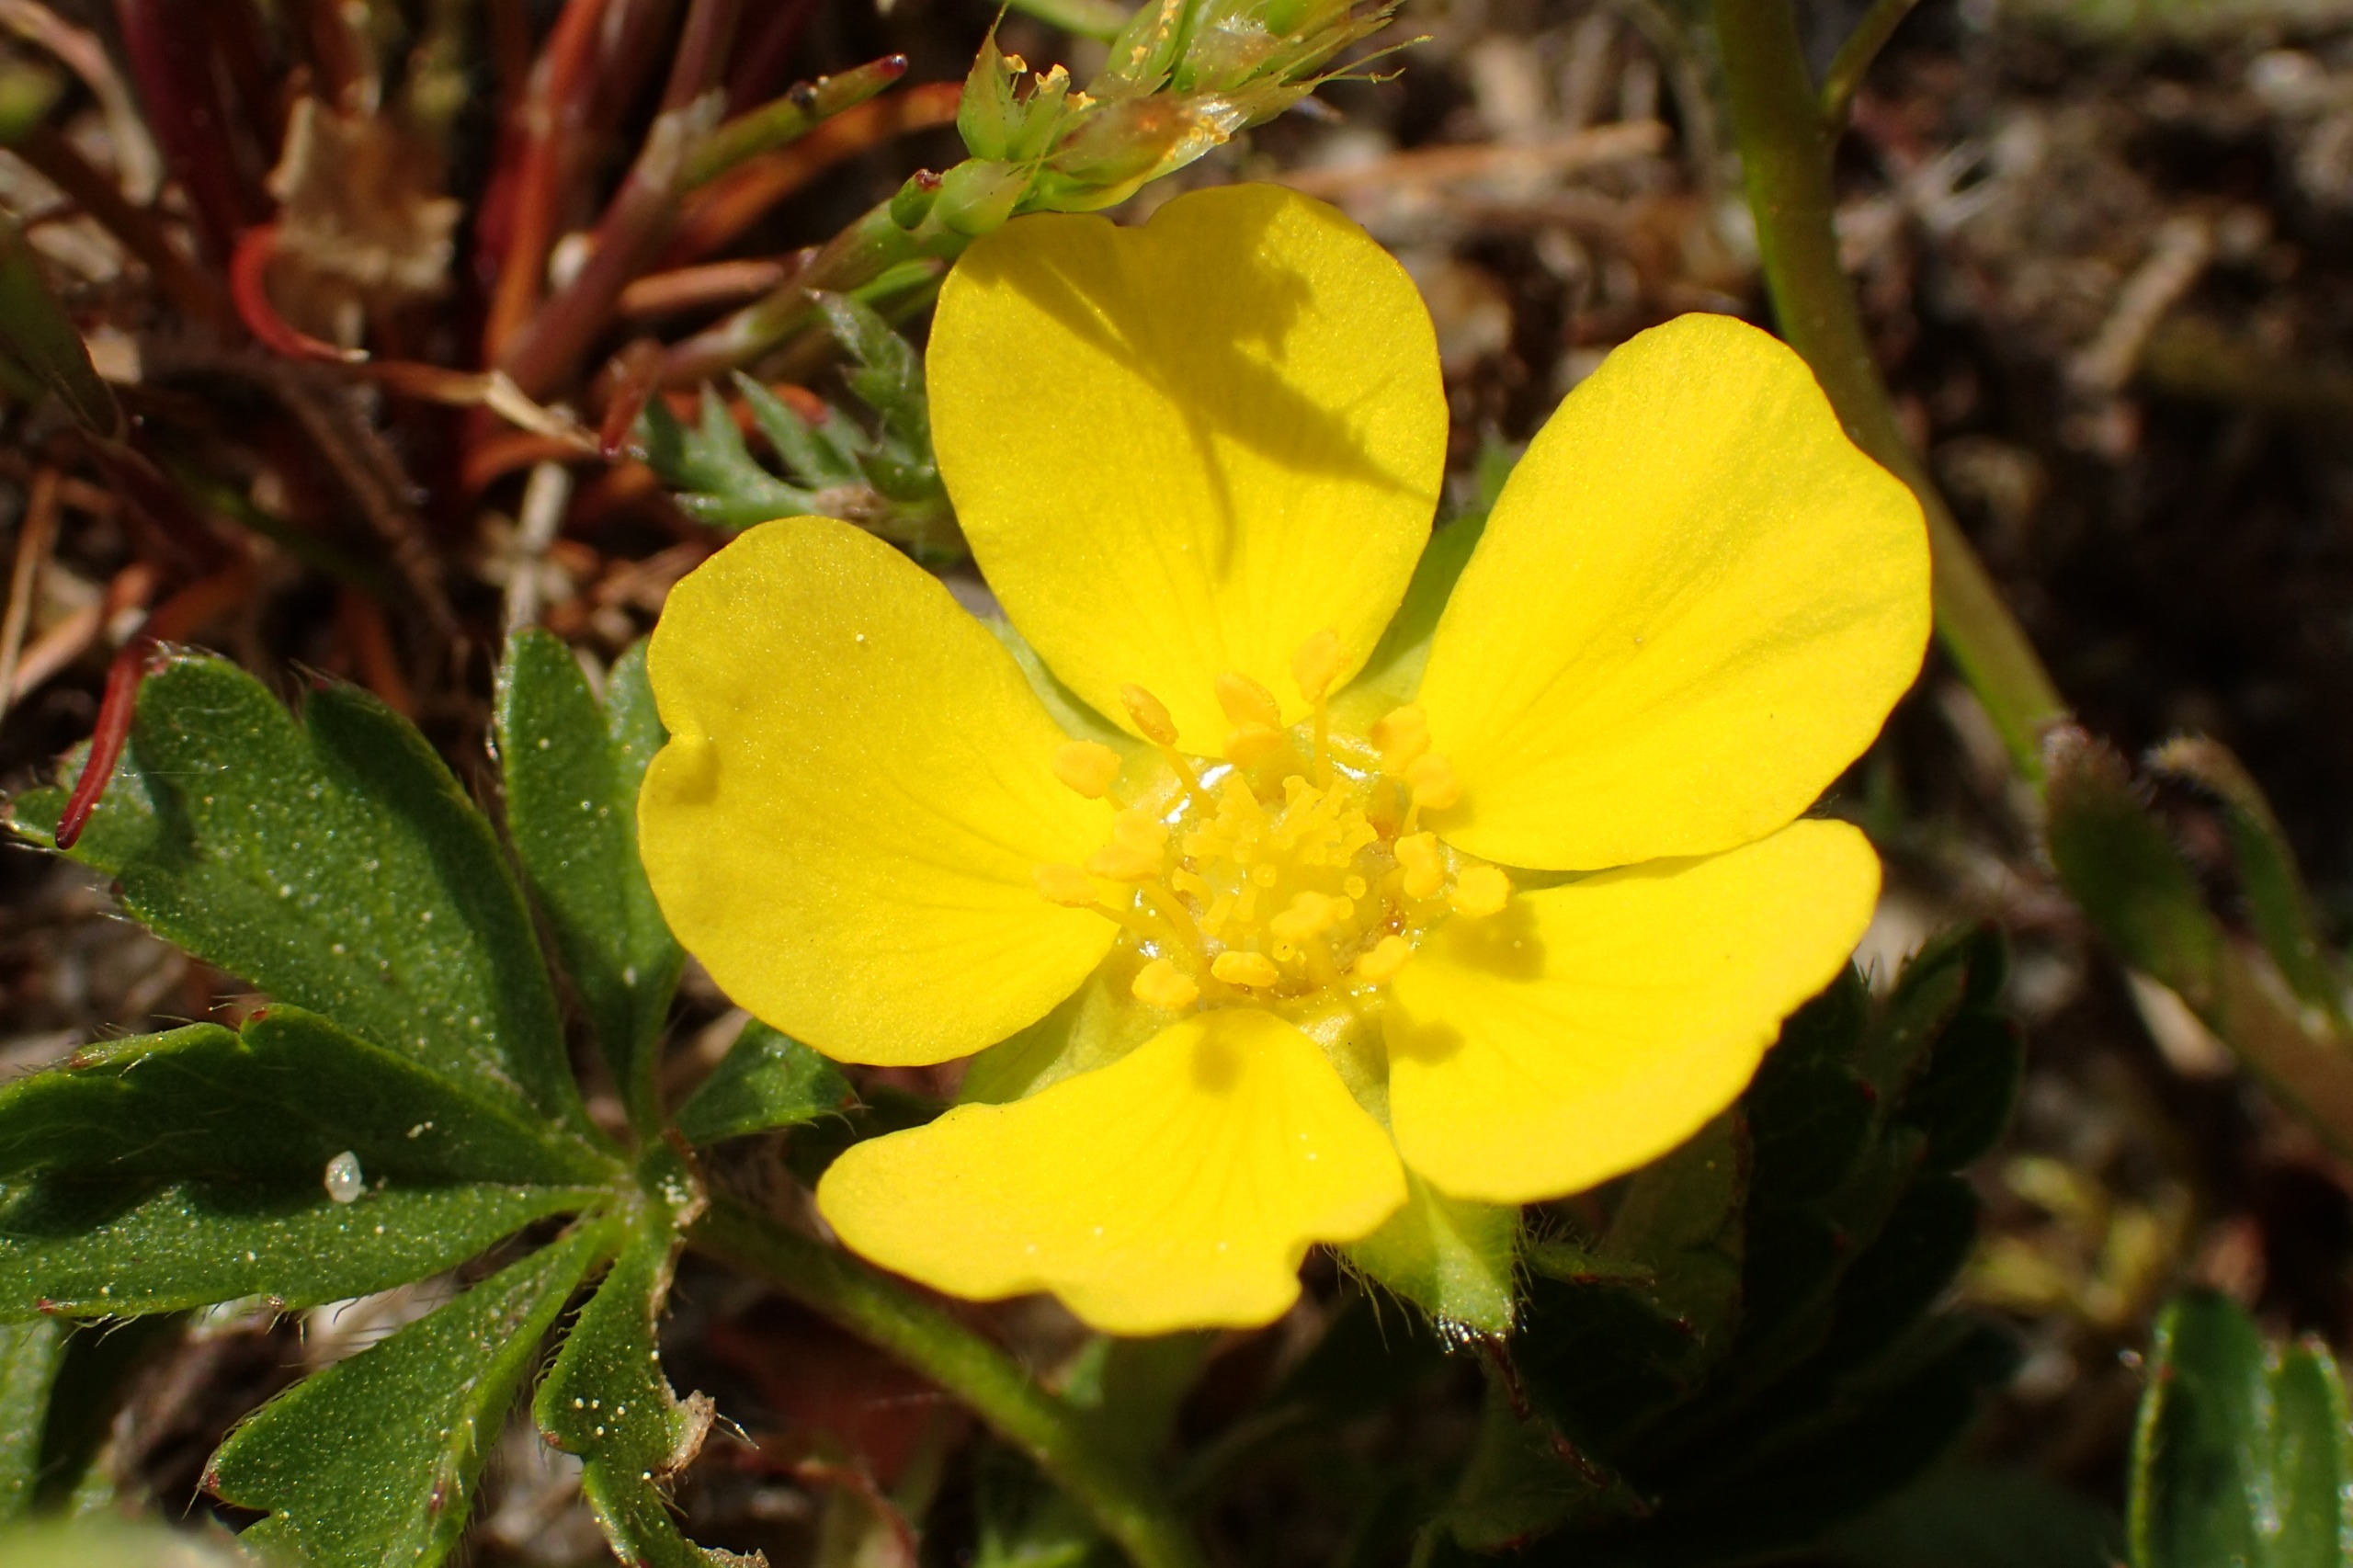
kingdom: Plantae
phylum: Tracheophyta
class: Magnoliopsida
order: Rosales
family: Rosaceae
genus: Potentilla
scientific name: Potentilla verna
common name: Vår-potentil
